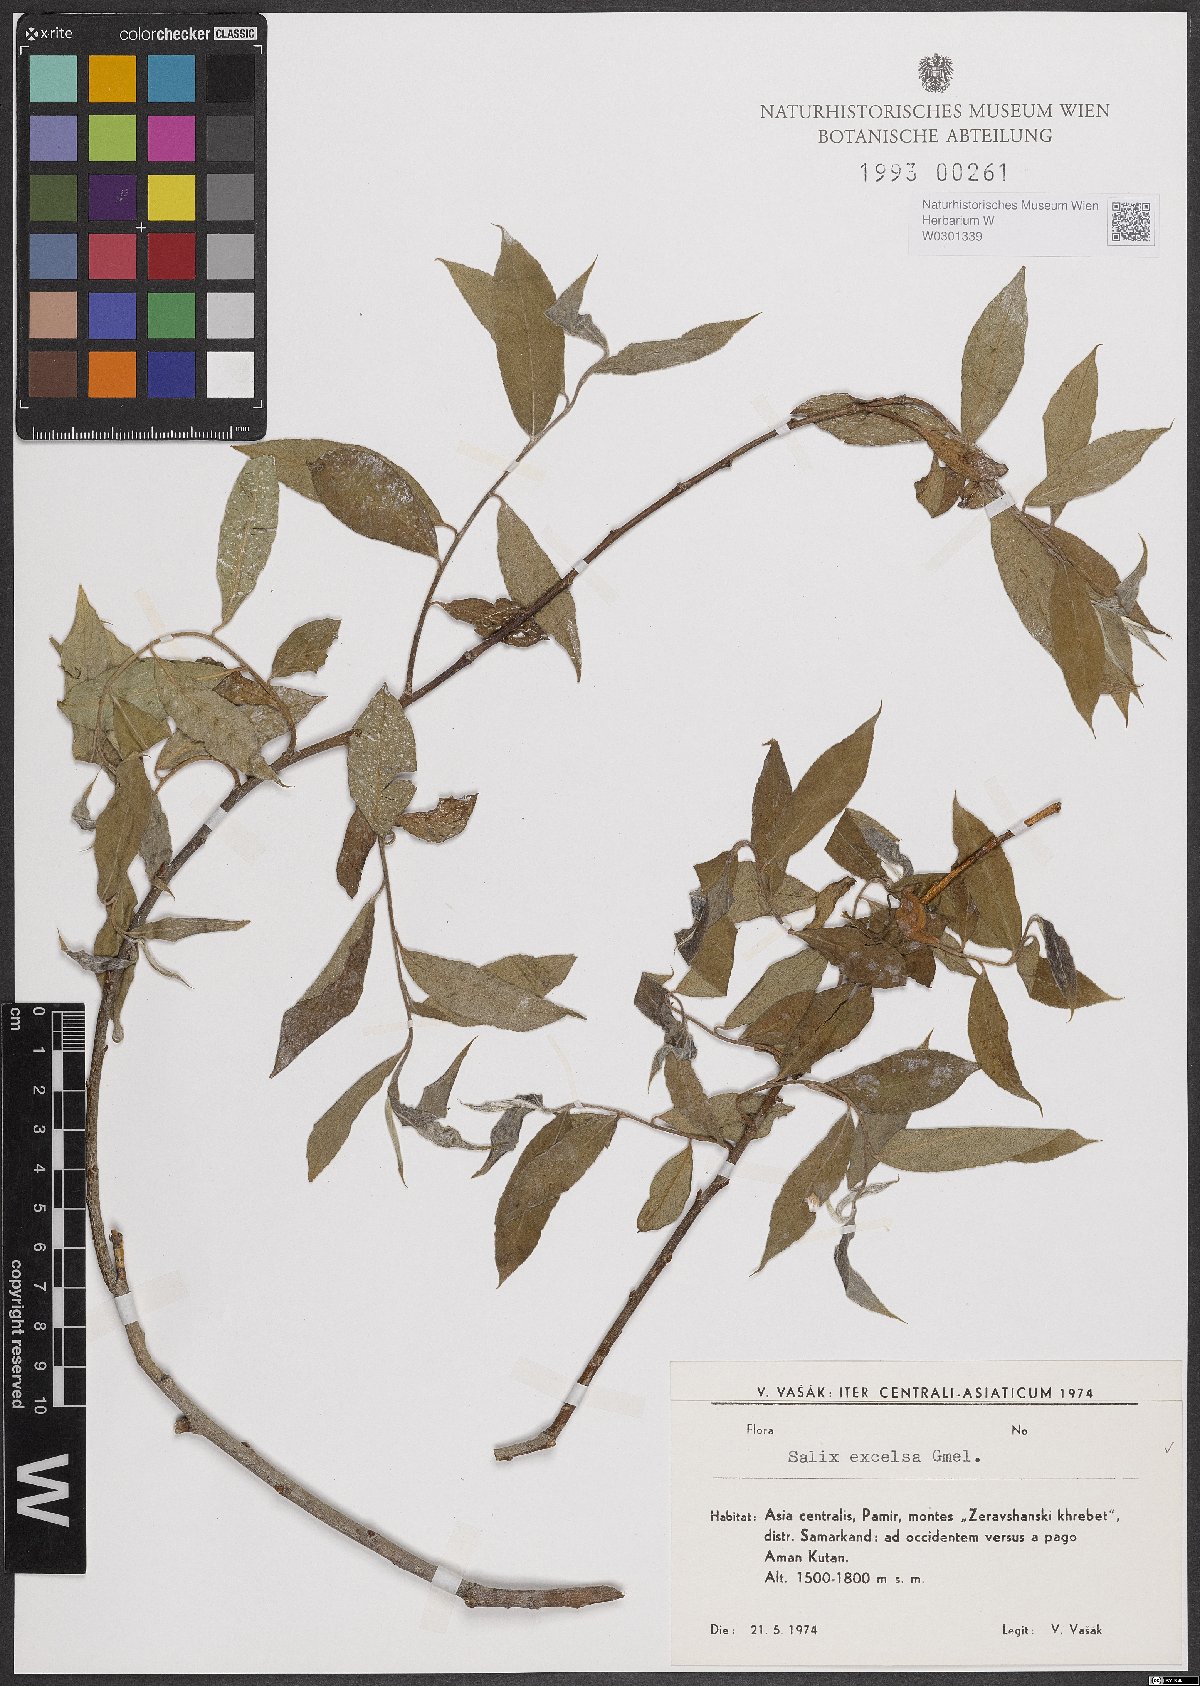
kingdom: Plantae
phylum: Tracheophyta
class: Magnoliopsida
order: Malpighiales
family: Salicaceae
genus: Salix
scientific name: Salix excelsa
